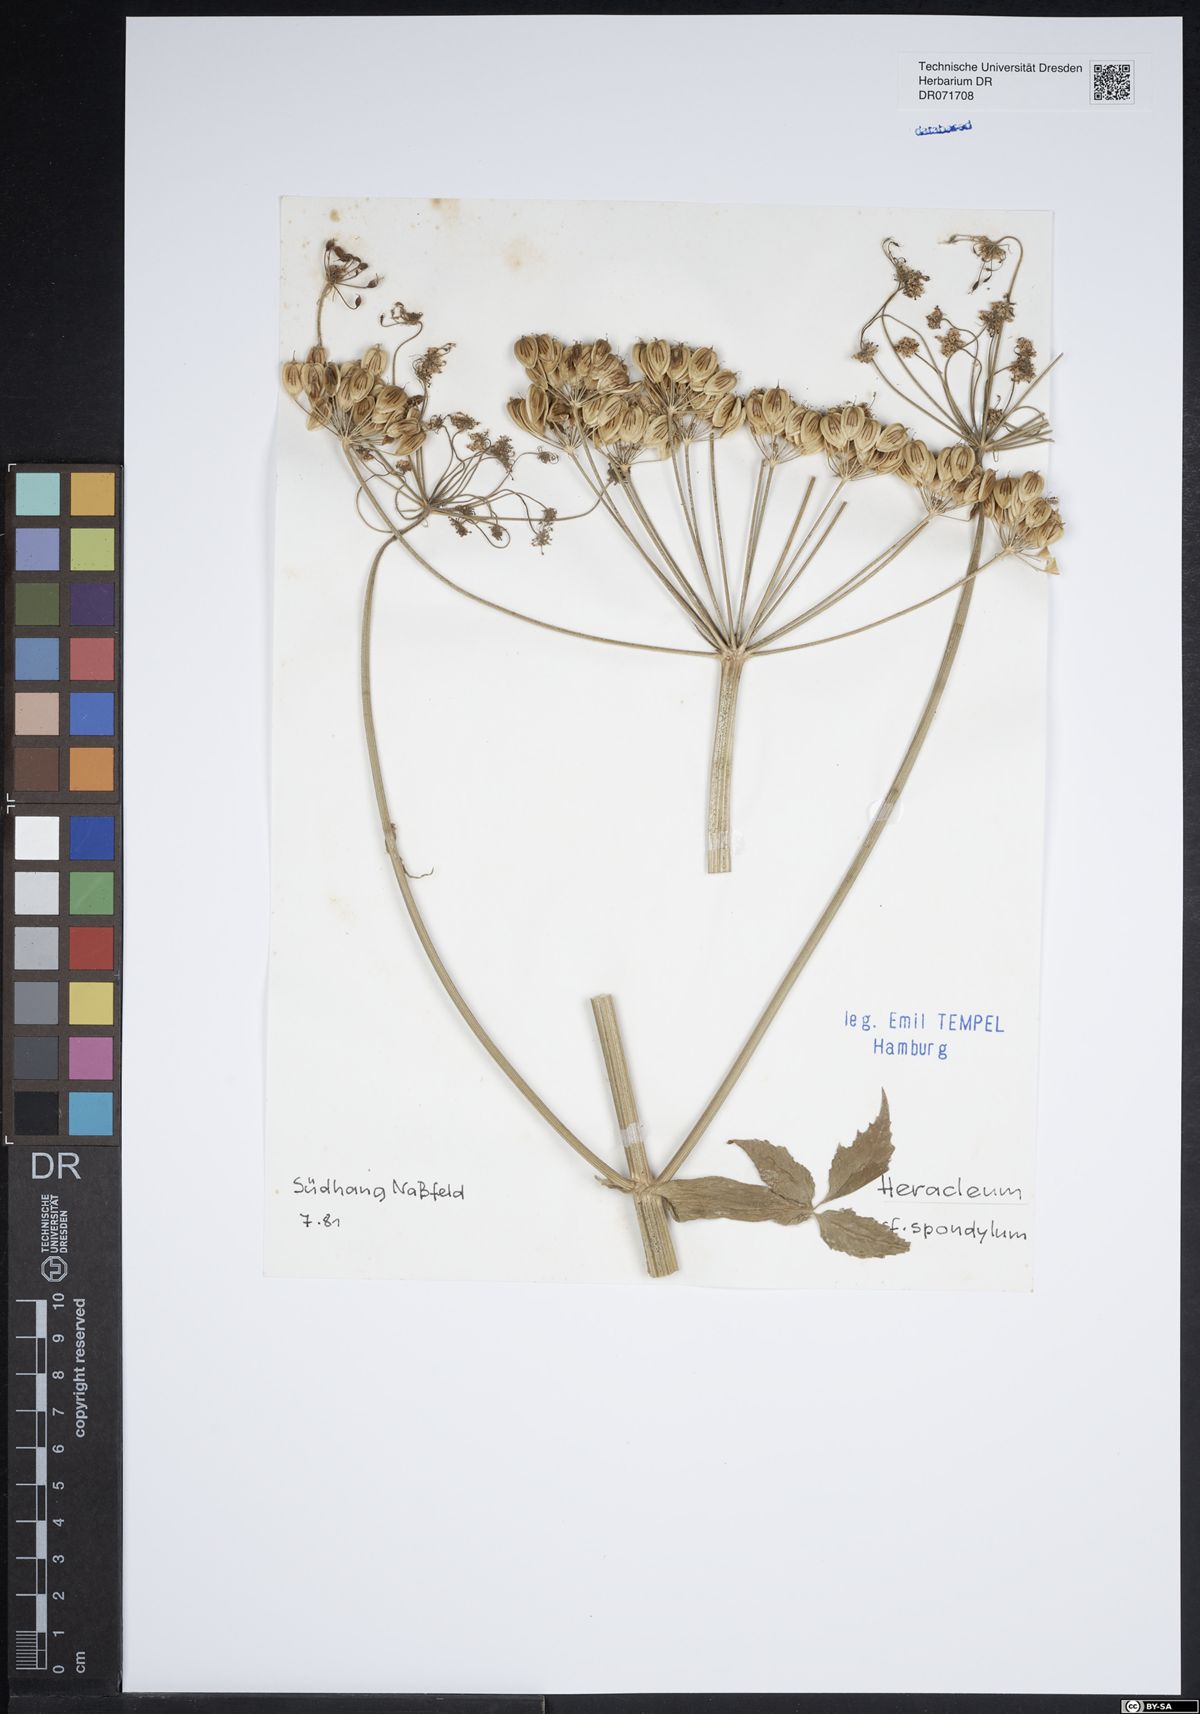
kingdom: Plantae
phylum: Tracheophyta
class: Magnoliopsida
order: Apiales
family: Apiaceae
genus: Heracleum
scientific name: Heracleum
